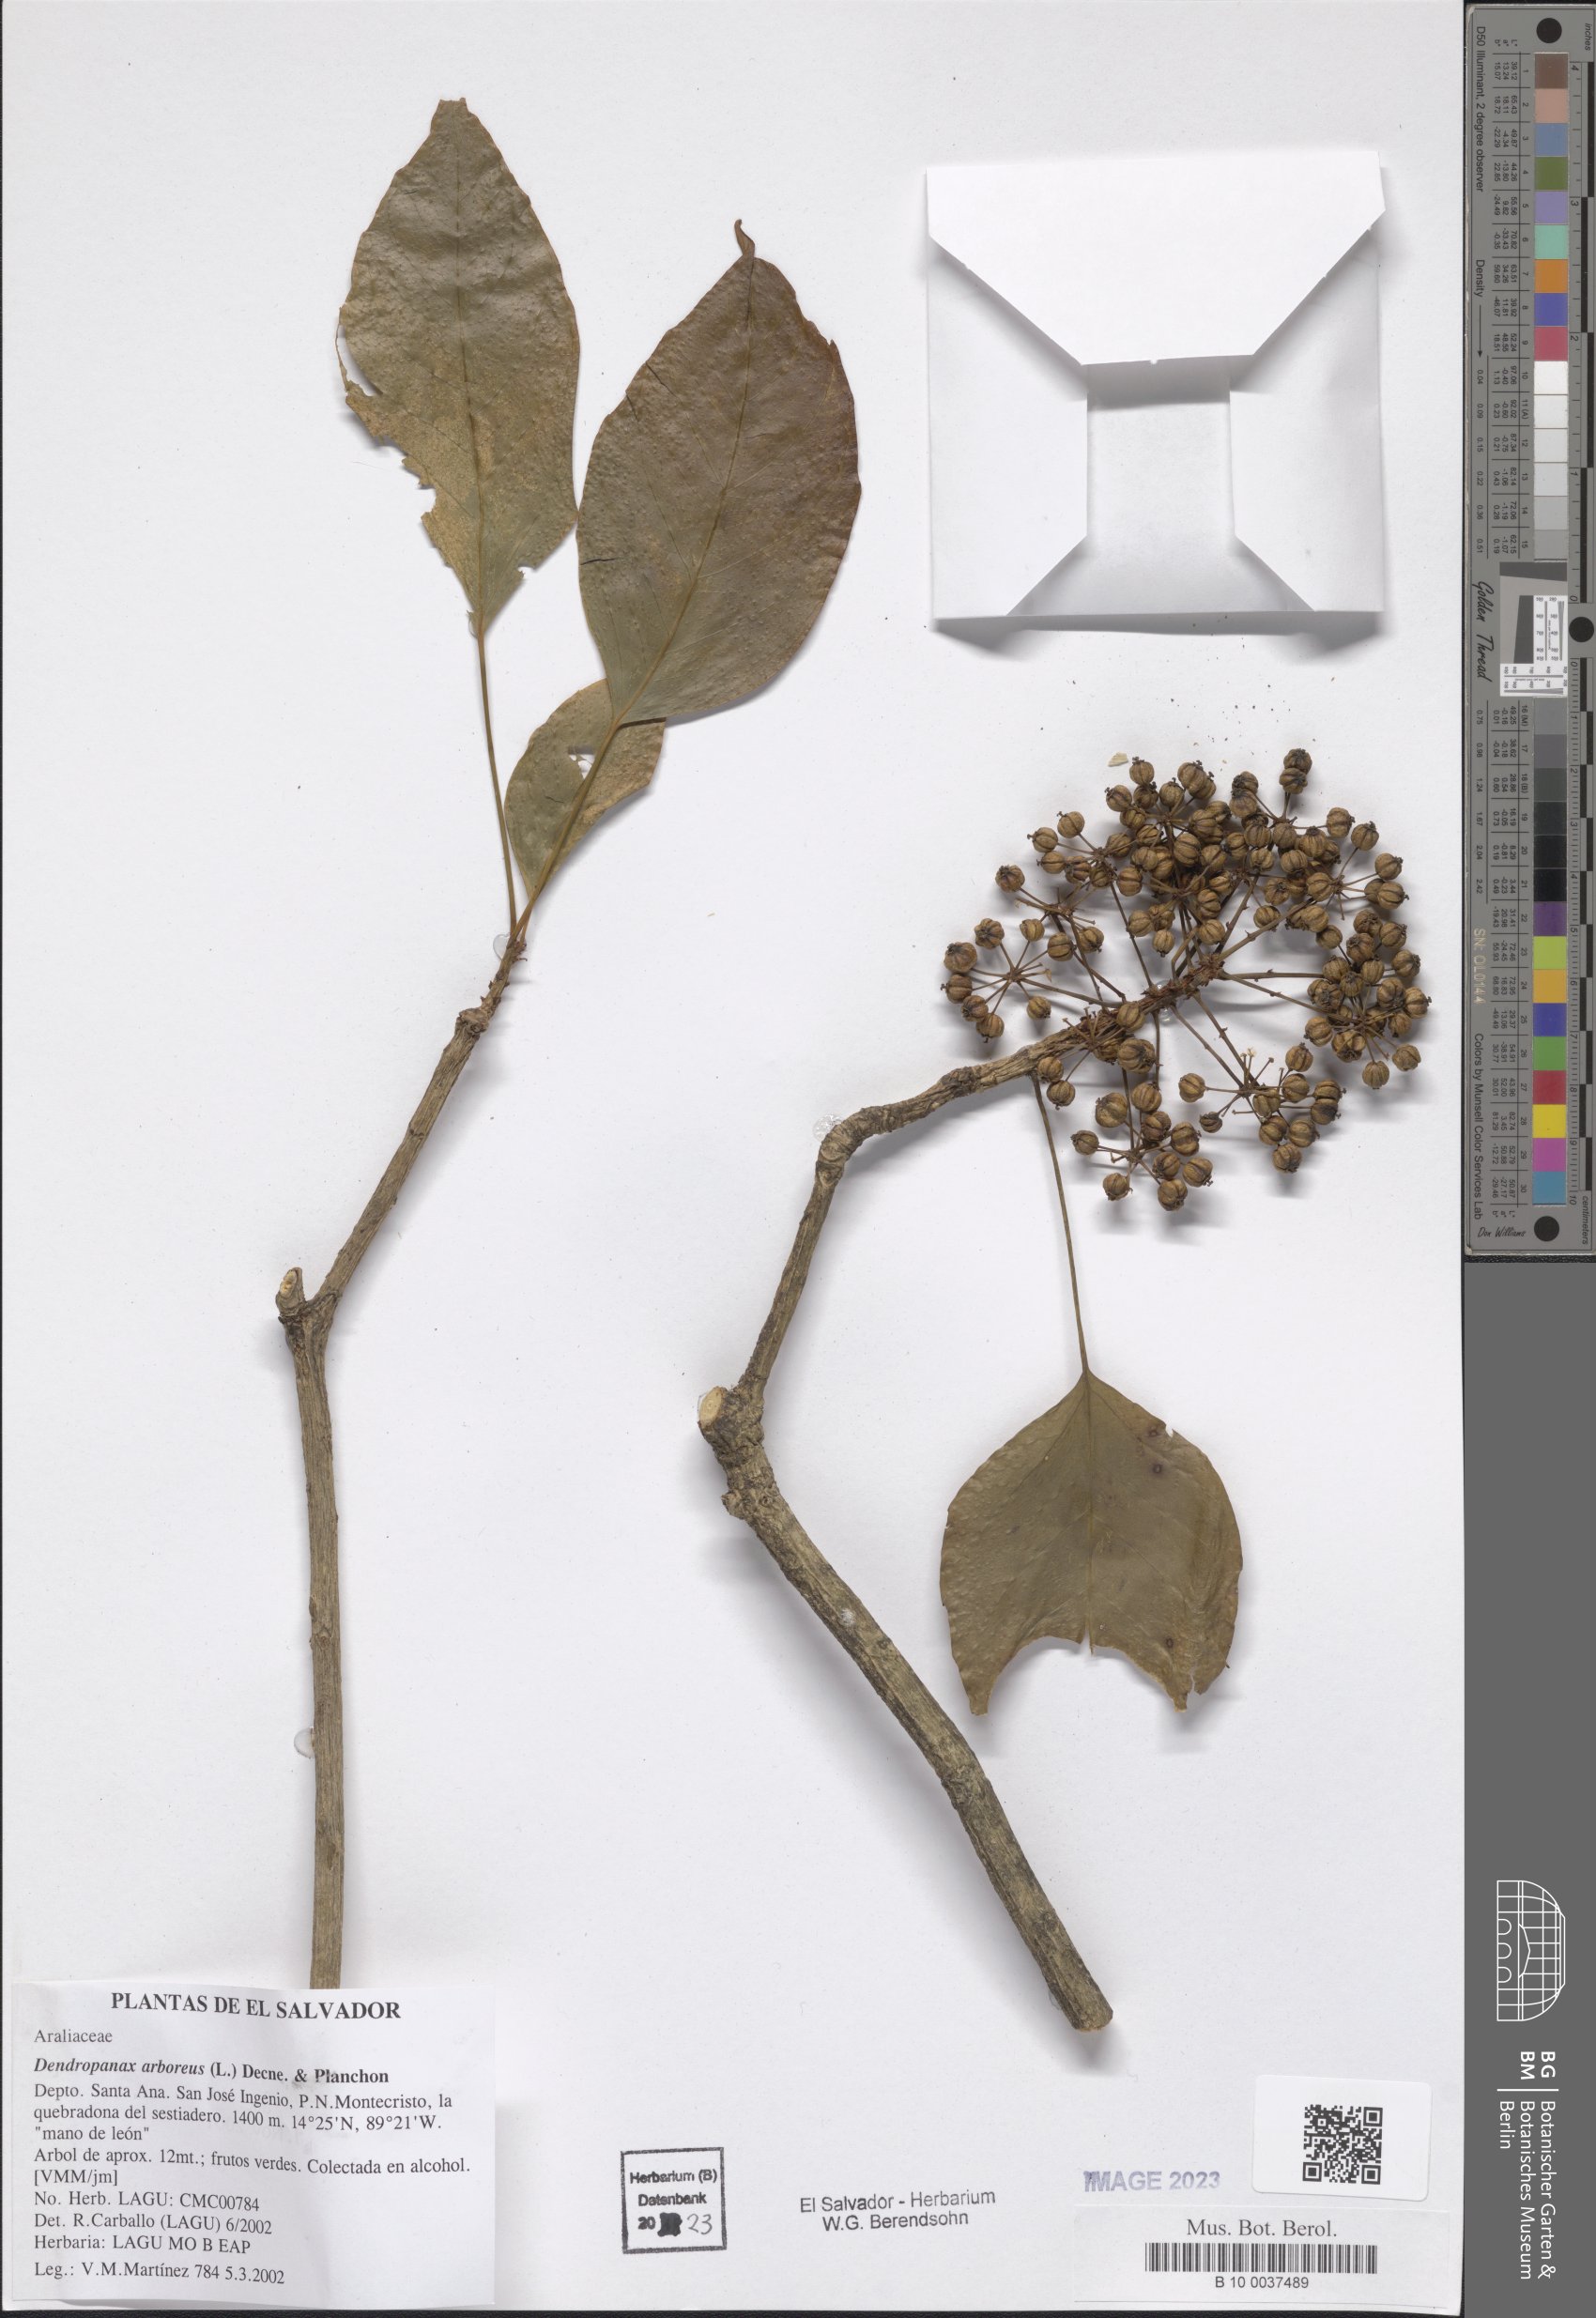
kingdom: Plantae
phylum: Tracheophyta
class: Magnoliopsida
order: Apiales
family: Araliaceae
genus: Dendropanax
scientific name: Dendropanax arboreus
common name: Potato-wood
